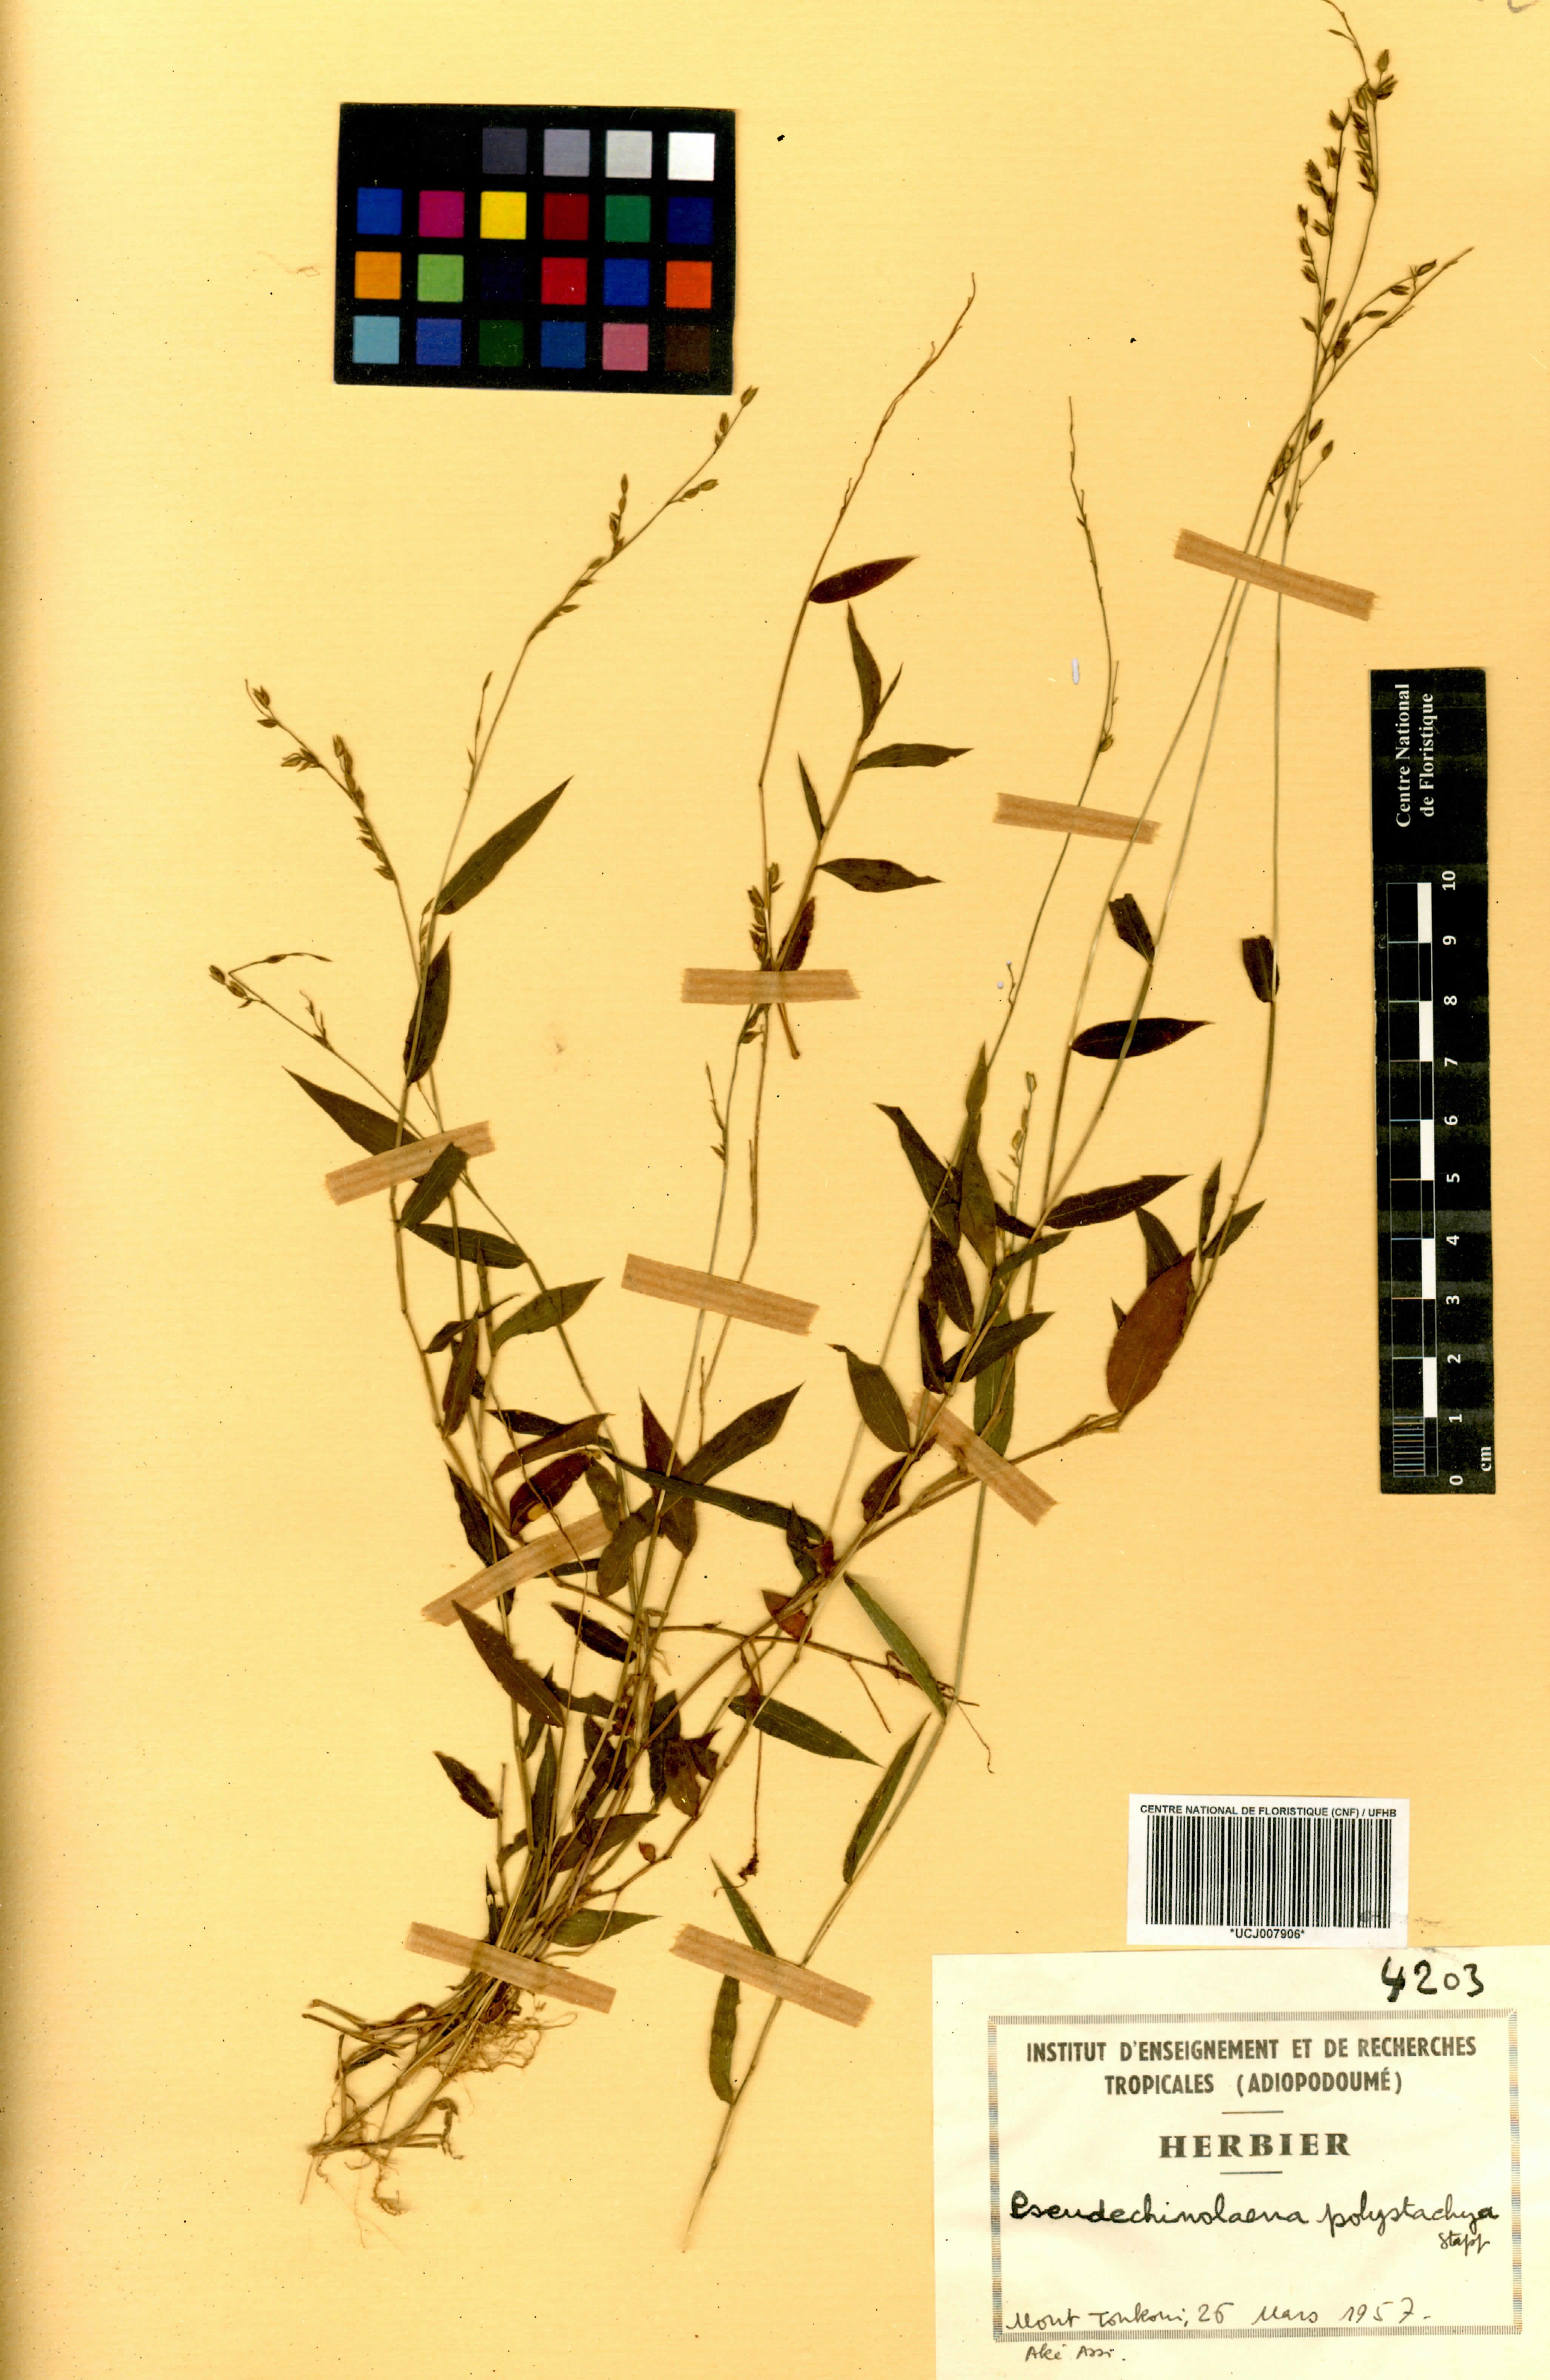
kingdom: Plantae
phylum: Tracheophyta
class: Liliopsida
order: Poales
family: Poaceae
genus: Pseudechinolaena
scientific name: Pseudechinolaena polystachya
